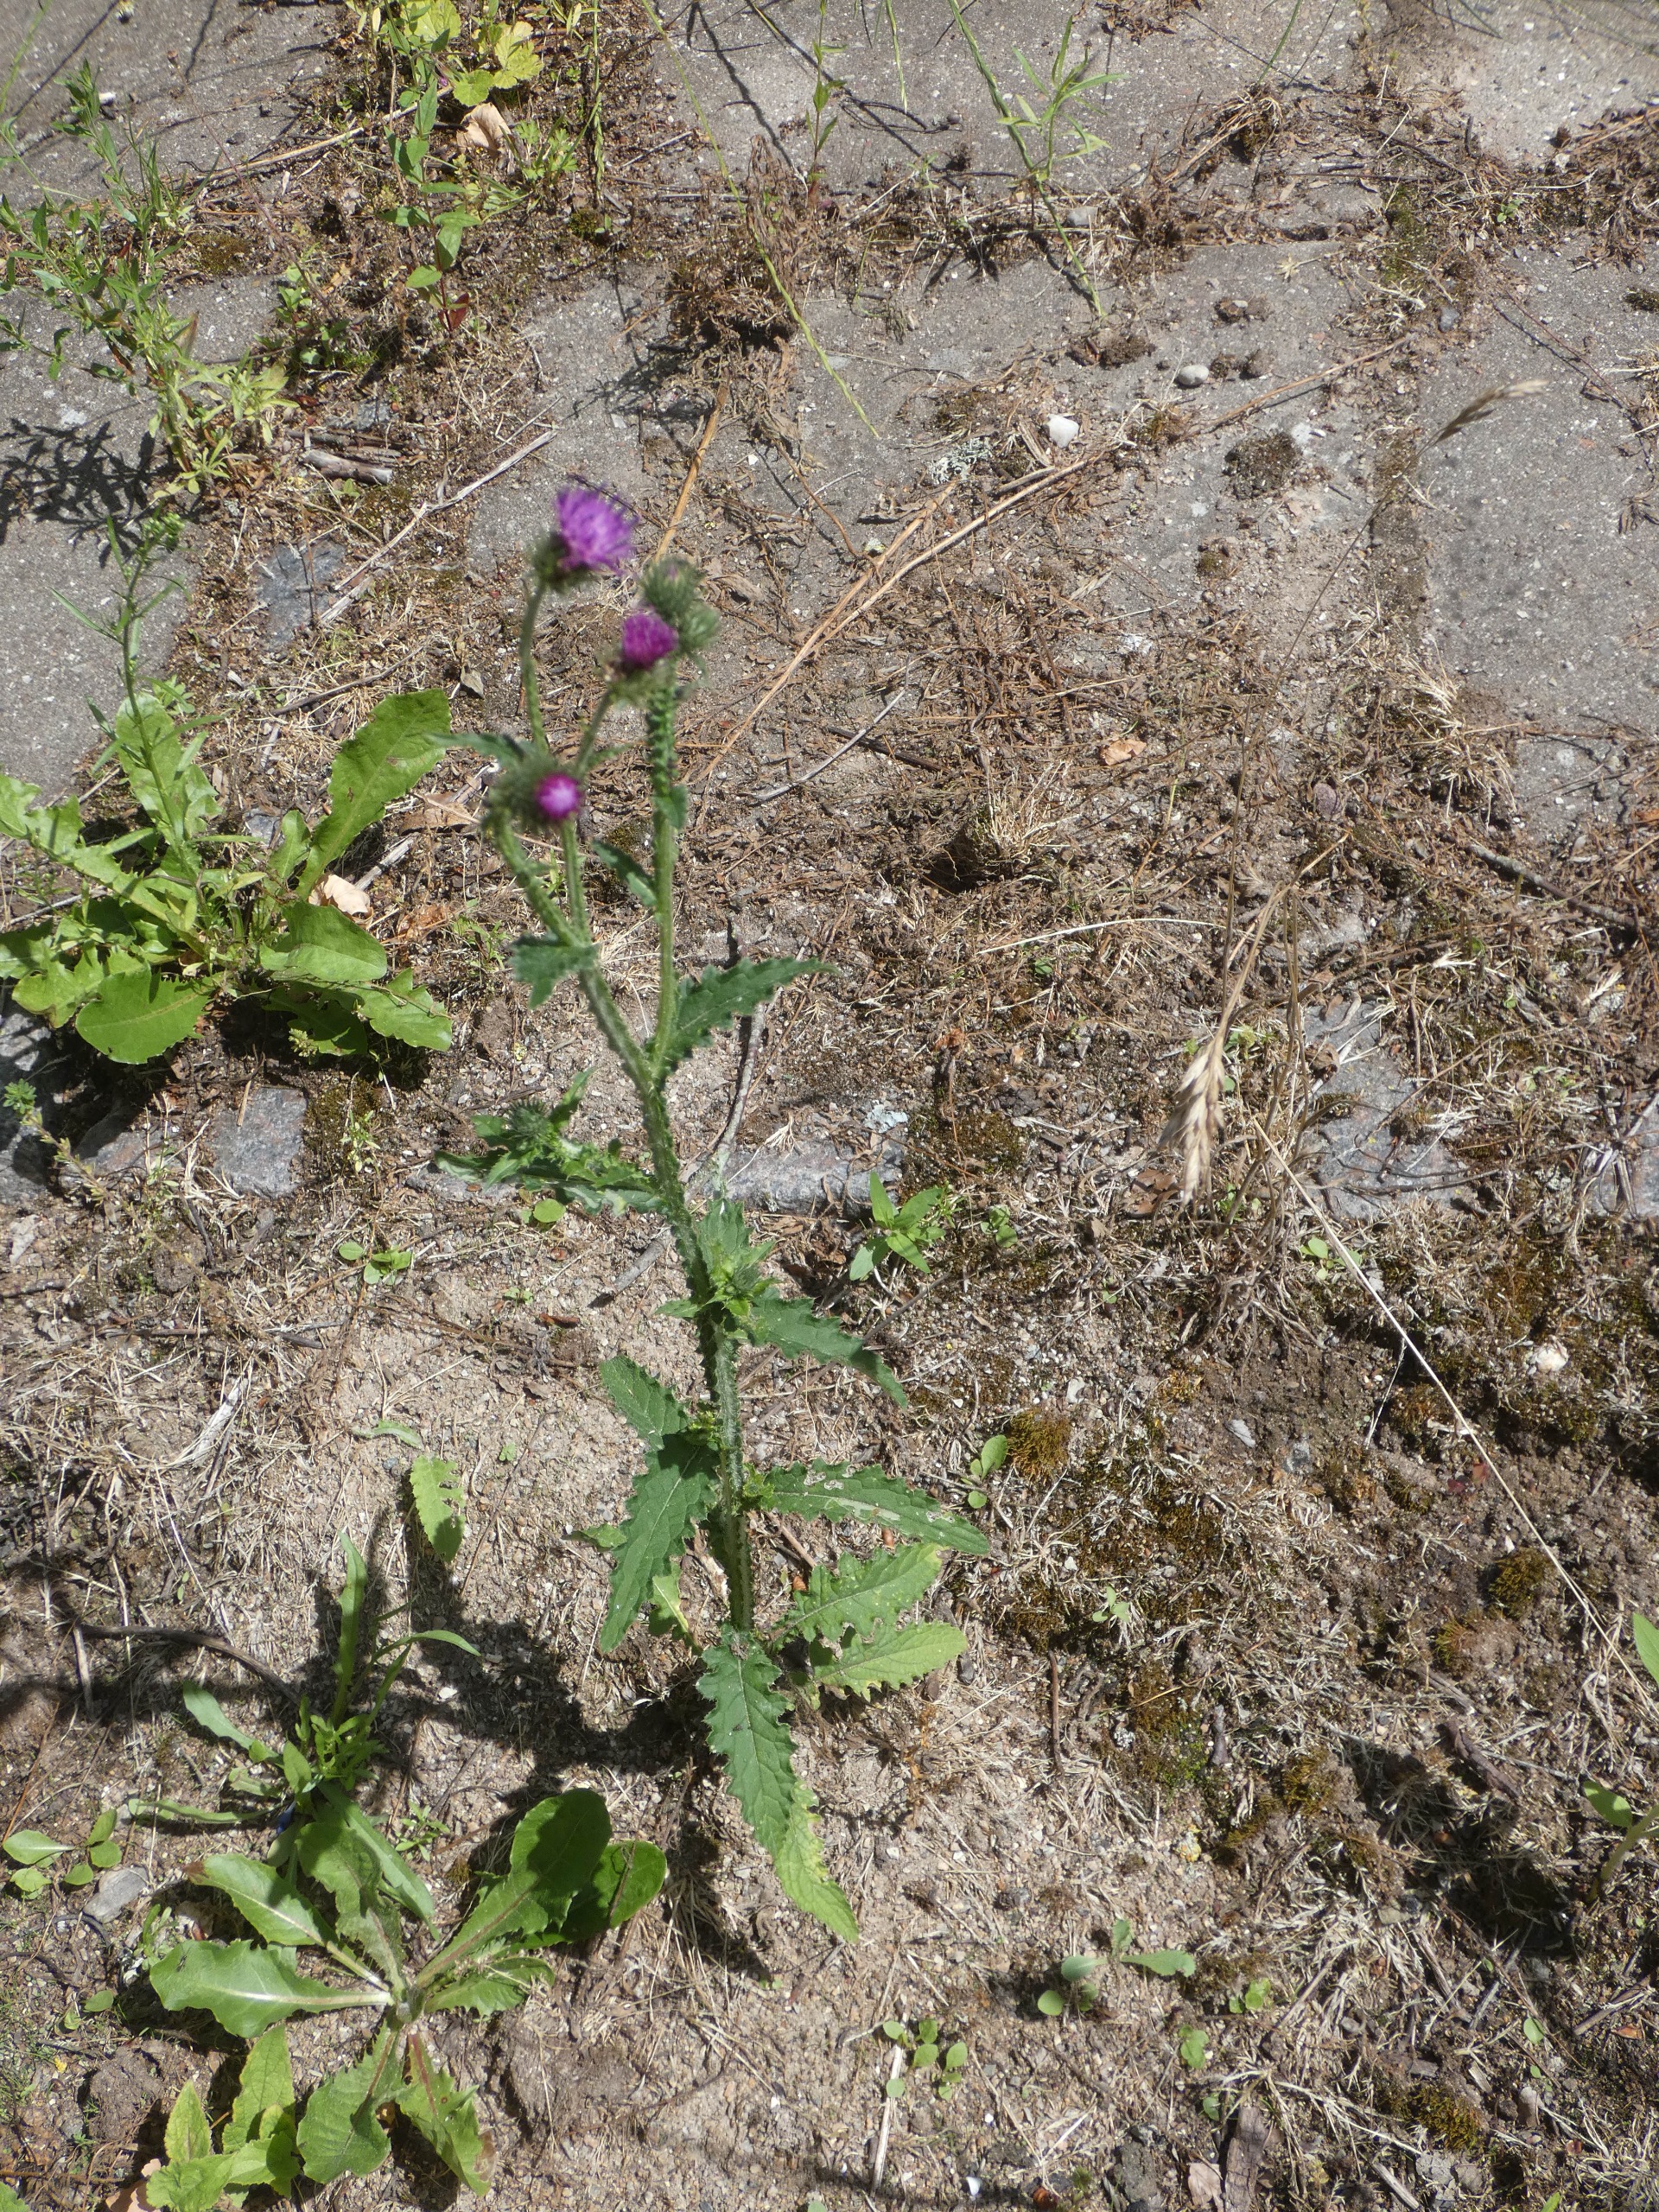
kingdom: Plantae
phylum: Tracheophyta
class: Magnoliopsida
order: Asterales
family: Asteraceae
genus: Carduus
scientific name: Carduus crispus
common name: Kruset tidsel
